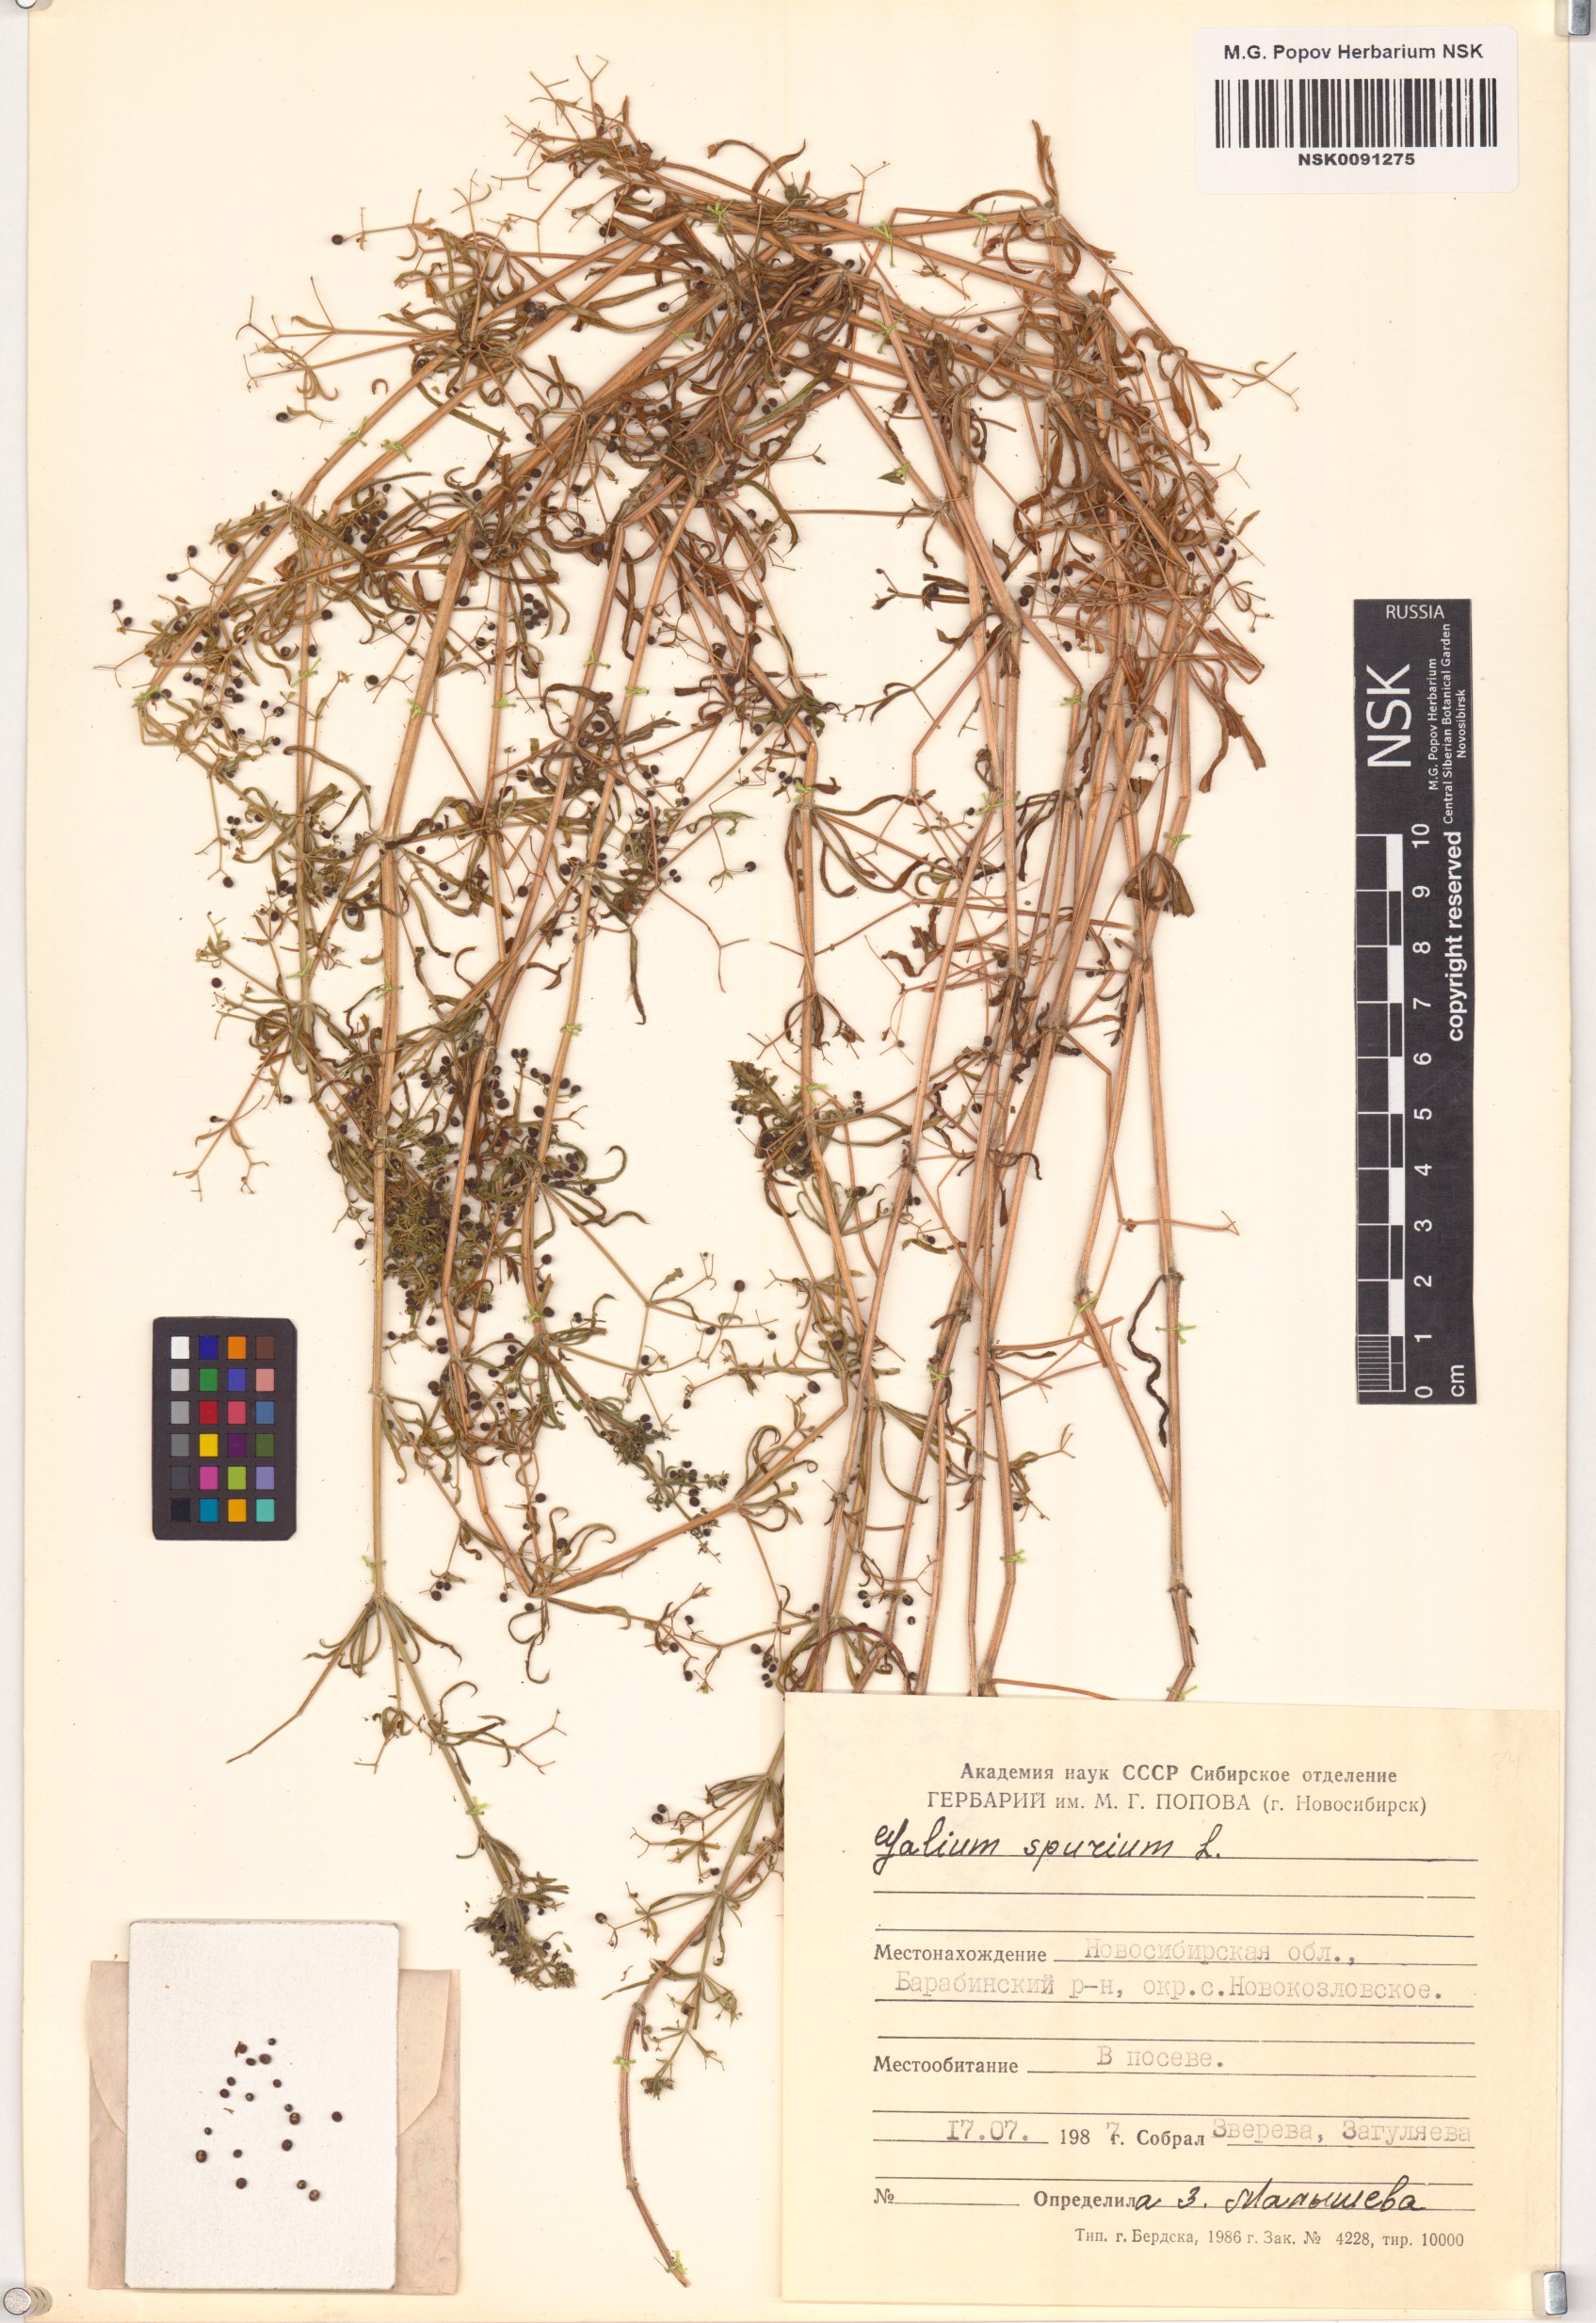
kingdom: Plantae
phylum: Tracheophyta
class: Magnoliopsida
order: Gentianales
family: Rubiaceae
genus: Galium
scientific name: Galium spurium
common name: False cleavers
